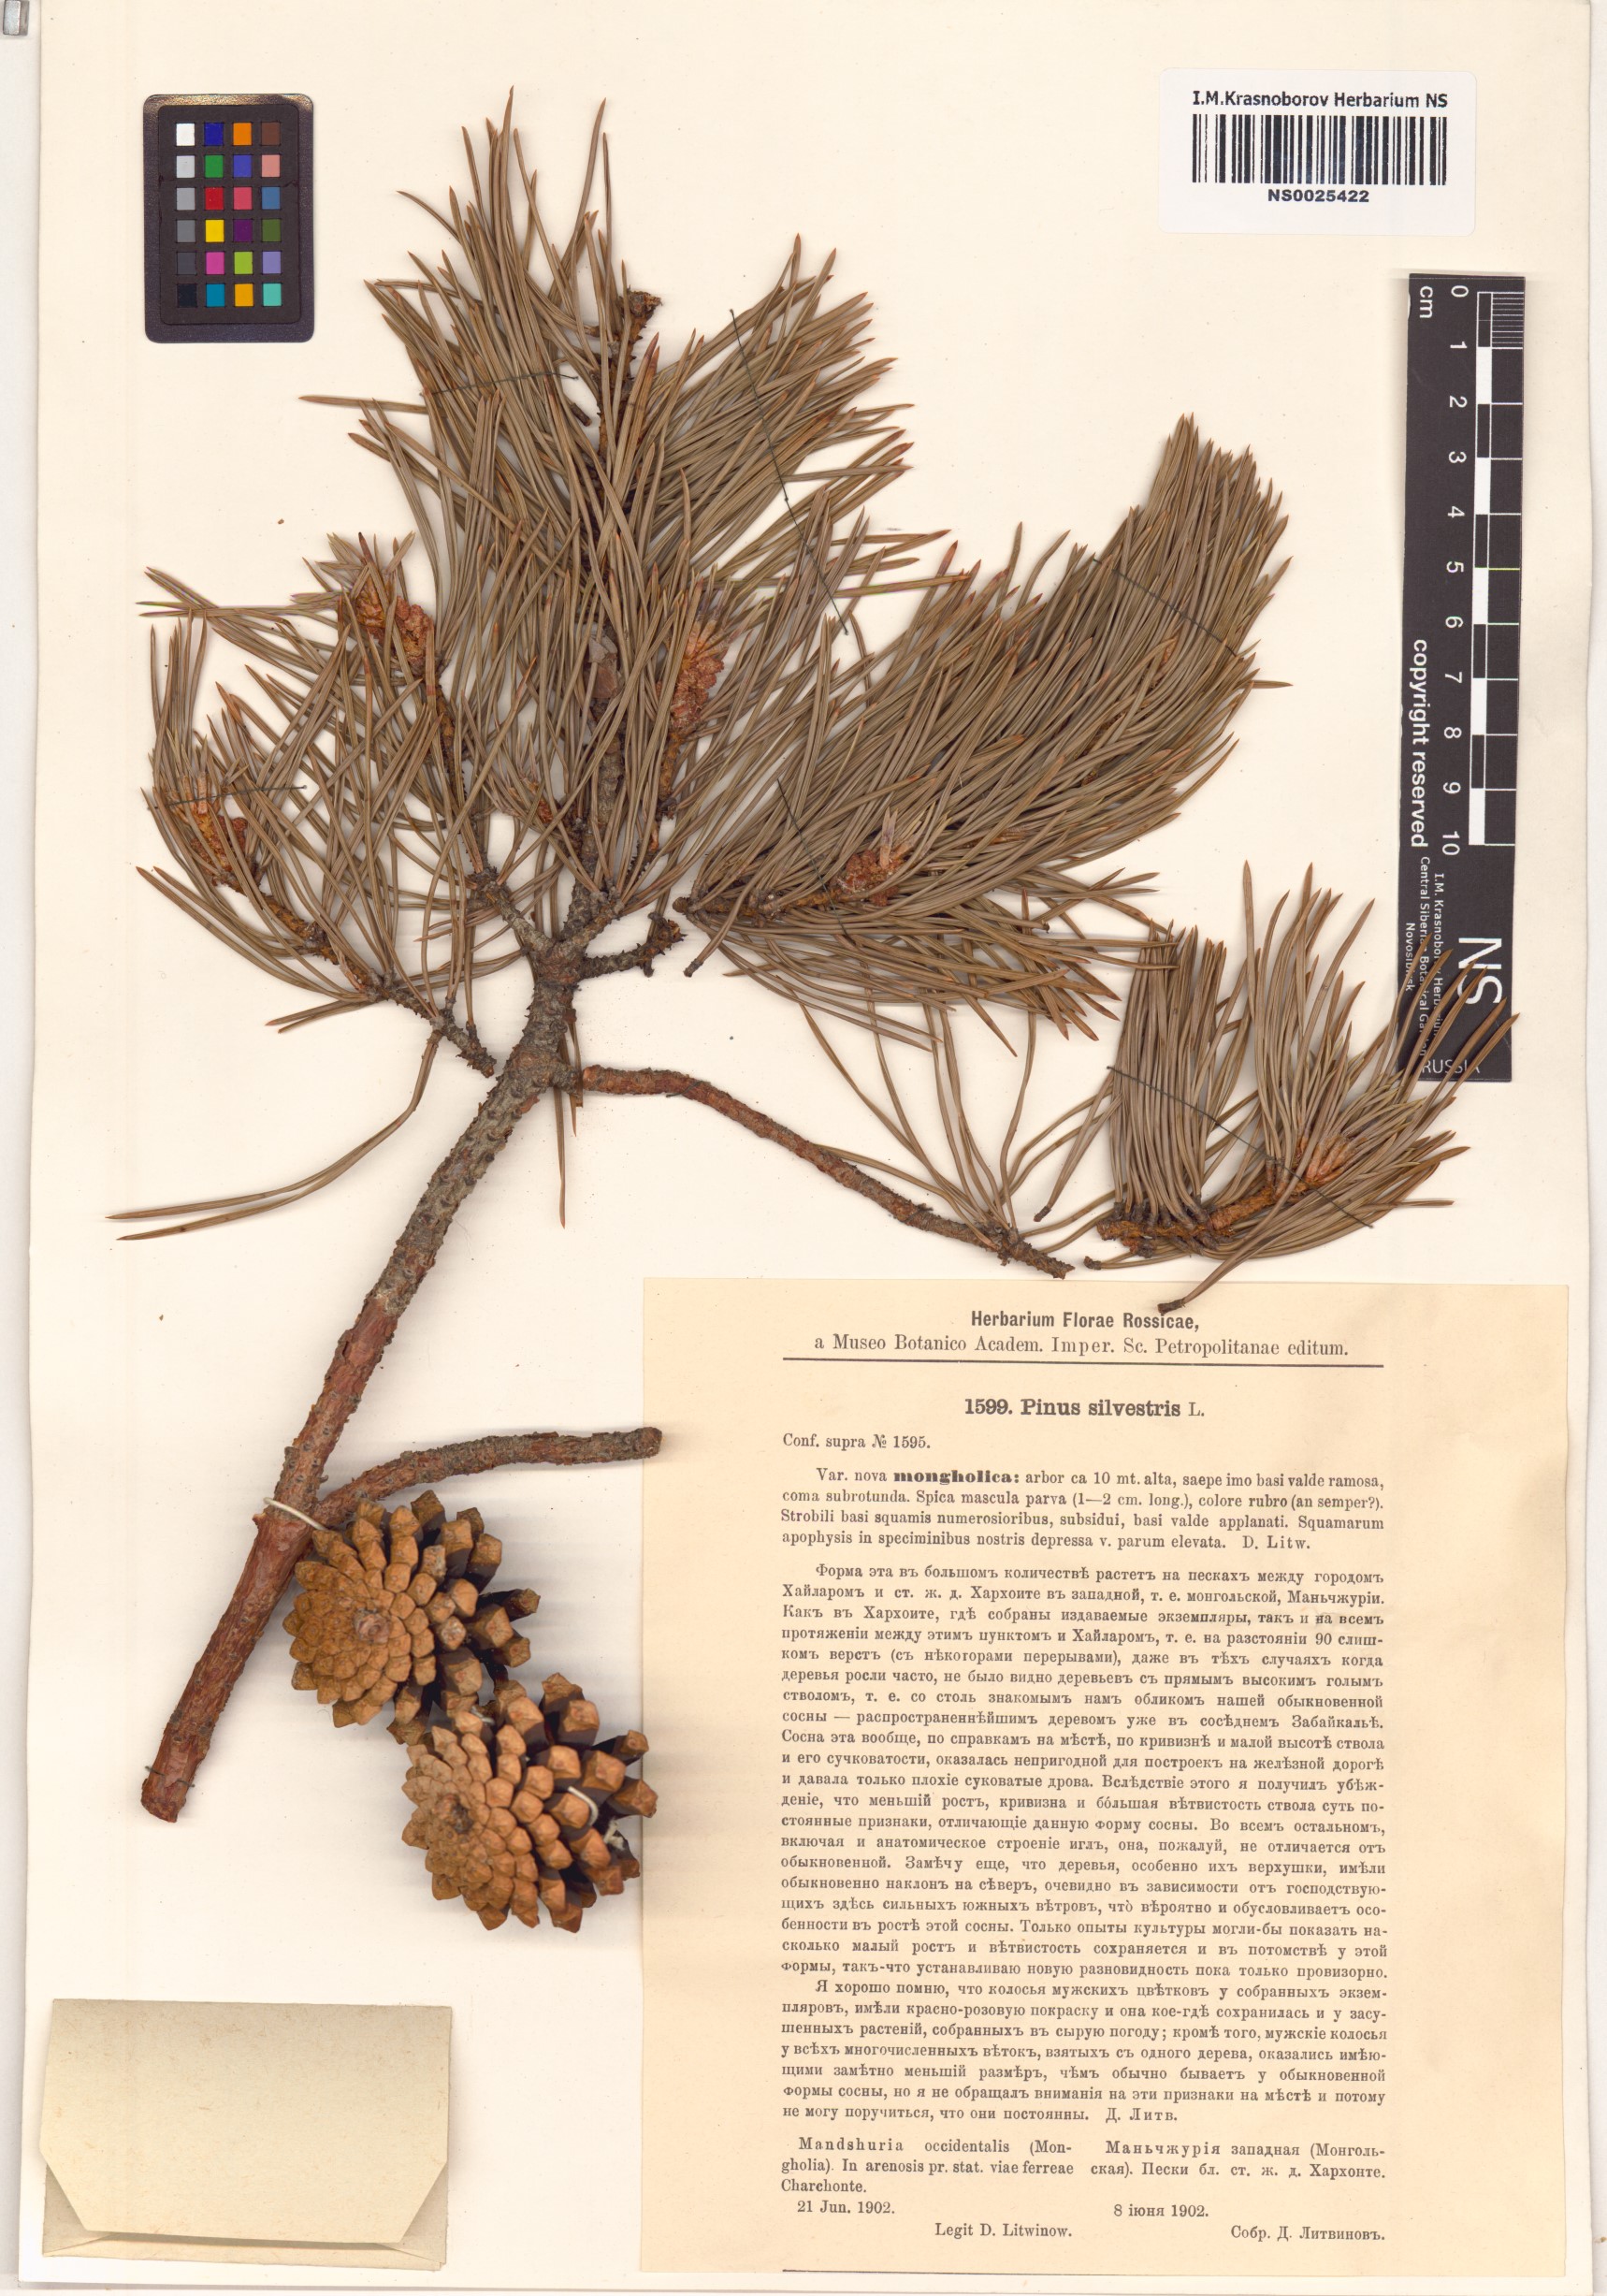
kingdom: Plantae
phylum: Tracheophyta
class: Pinopsida
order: Pinales
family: Pinaceae
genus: Pinus
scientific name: Pinus sylvestris
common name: Scots pine
